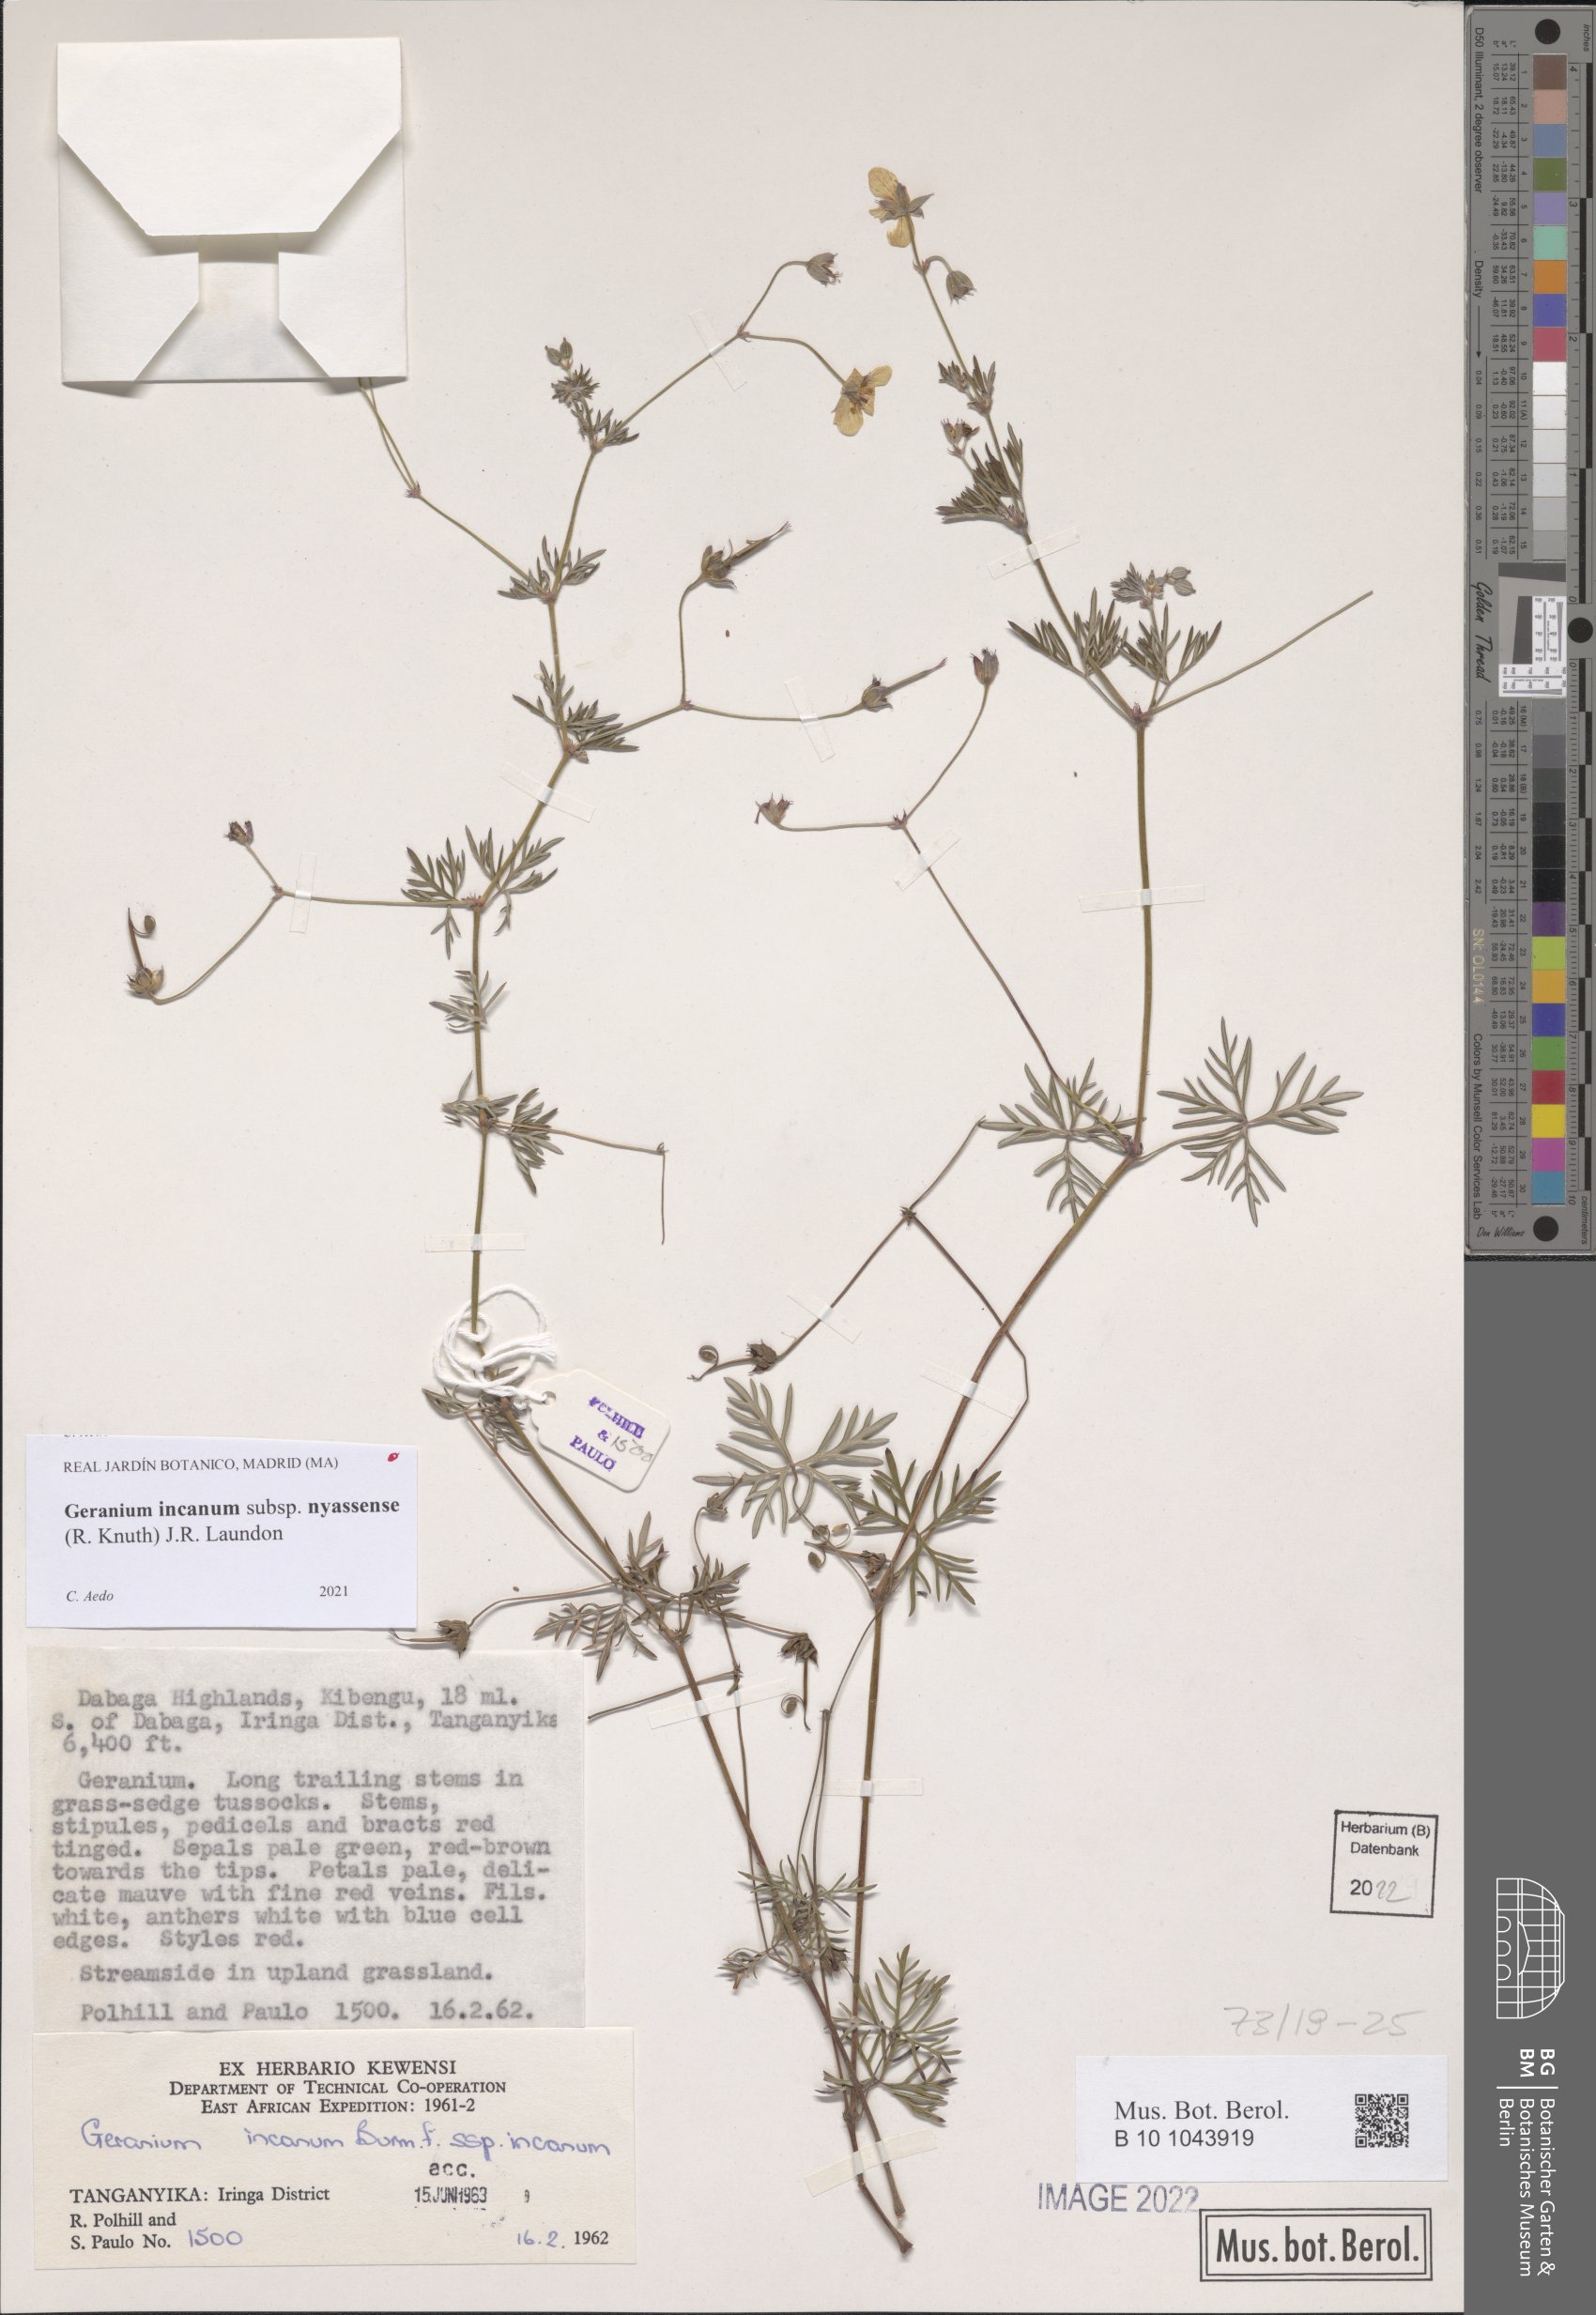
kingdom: Plantae
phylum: Tracheophyta
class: Magnoliopsida
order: Geraniales
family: Geraniaceae
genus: Geranium
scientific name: Geranium nyassense
